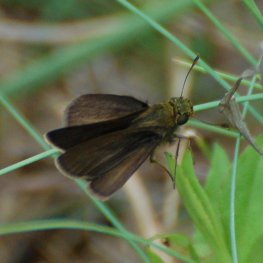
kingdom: Animalia
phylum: Arthropoda
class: Insecta
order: Lepidoptera
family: Hesperiidae
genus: Euphyes
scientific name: Euphyes vestris
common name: Dun Skipper
